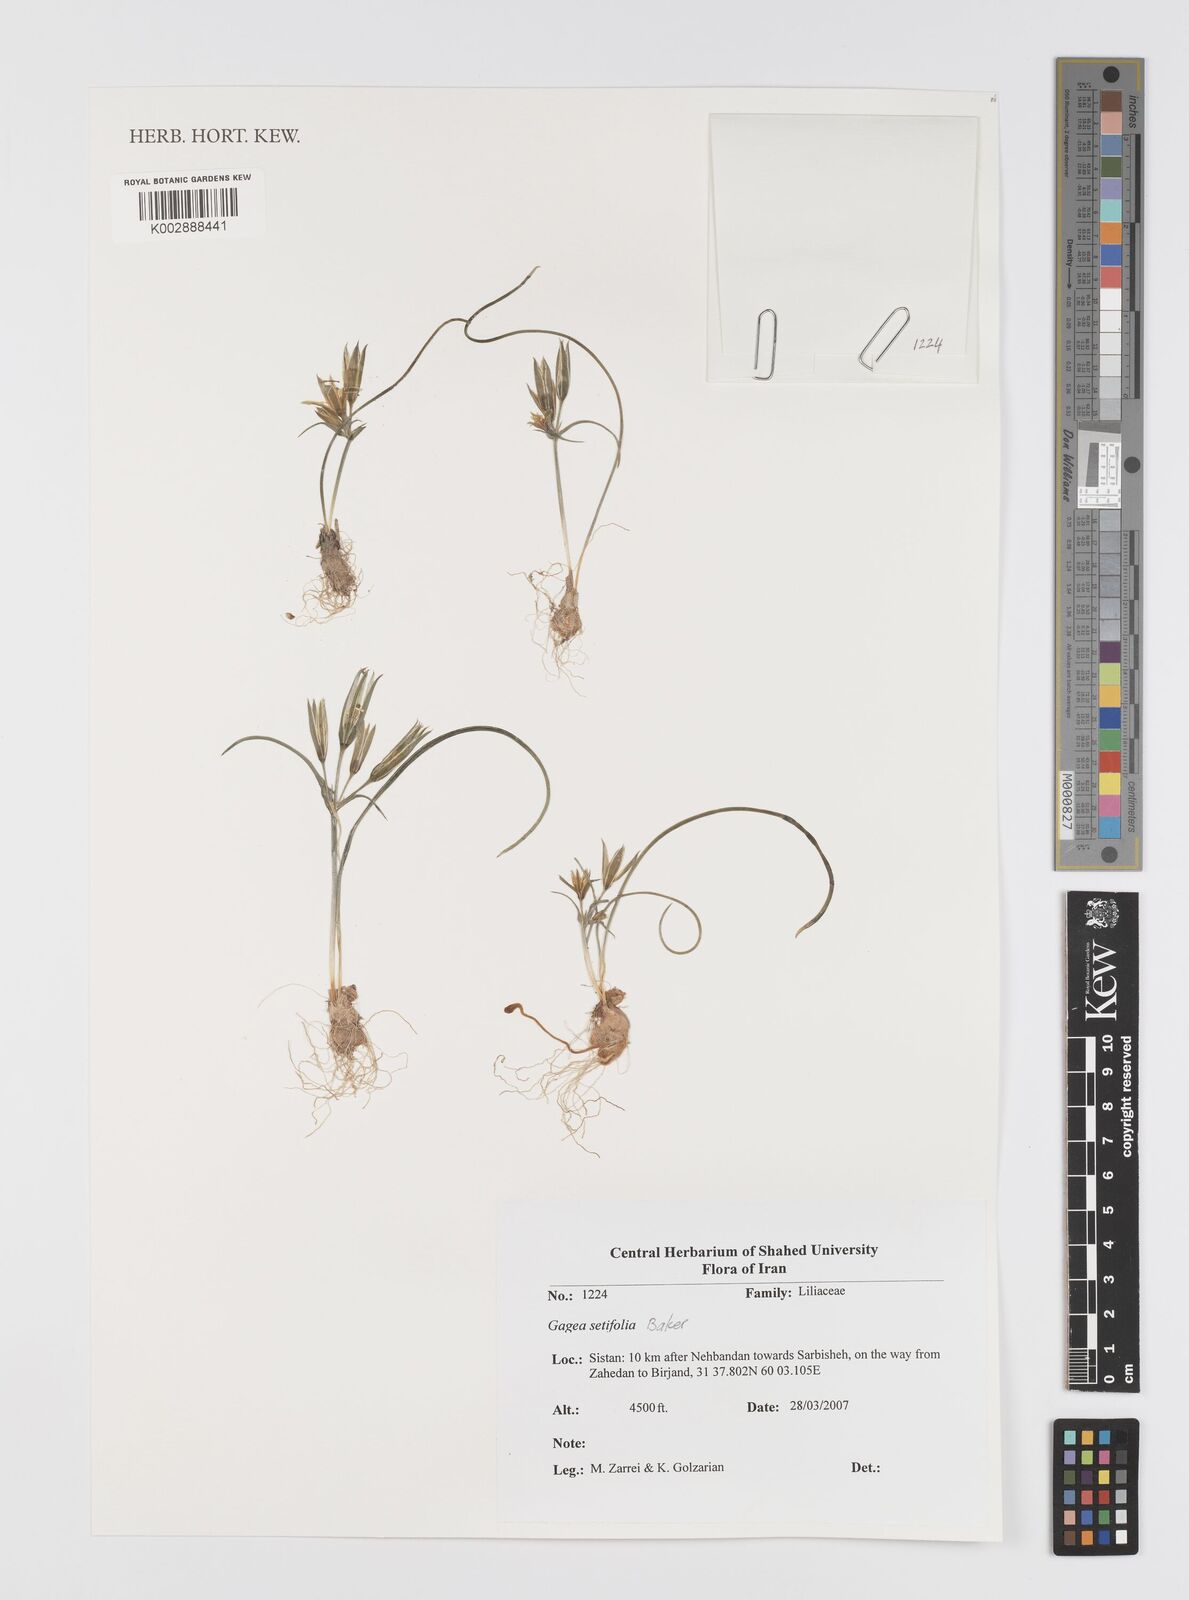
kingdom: Plantae
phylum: Tracheophyta
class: Liliopsida
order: Liliales
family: Liliaceae
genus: Gagea
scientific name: Gagea setifolia
